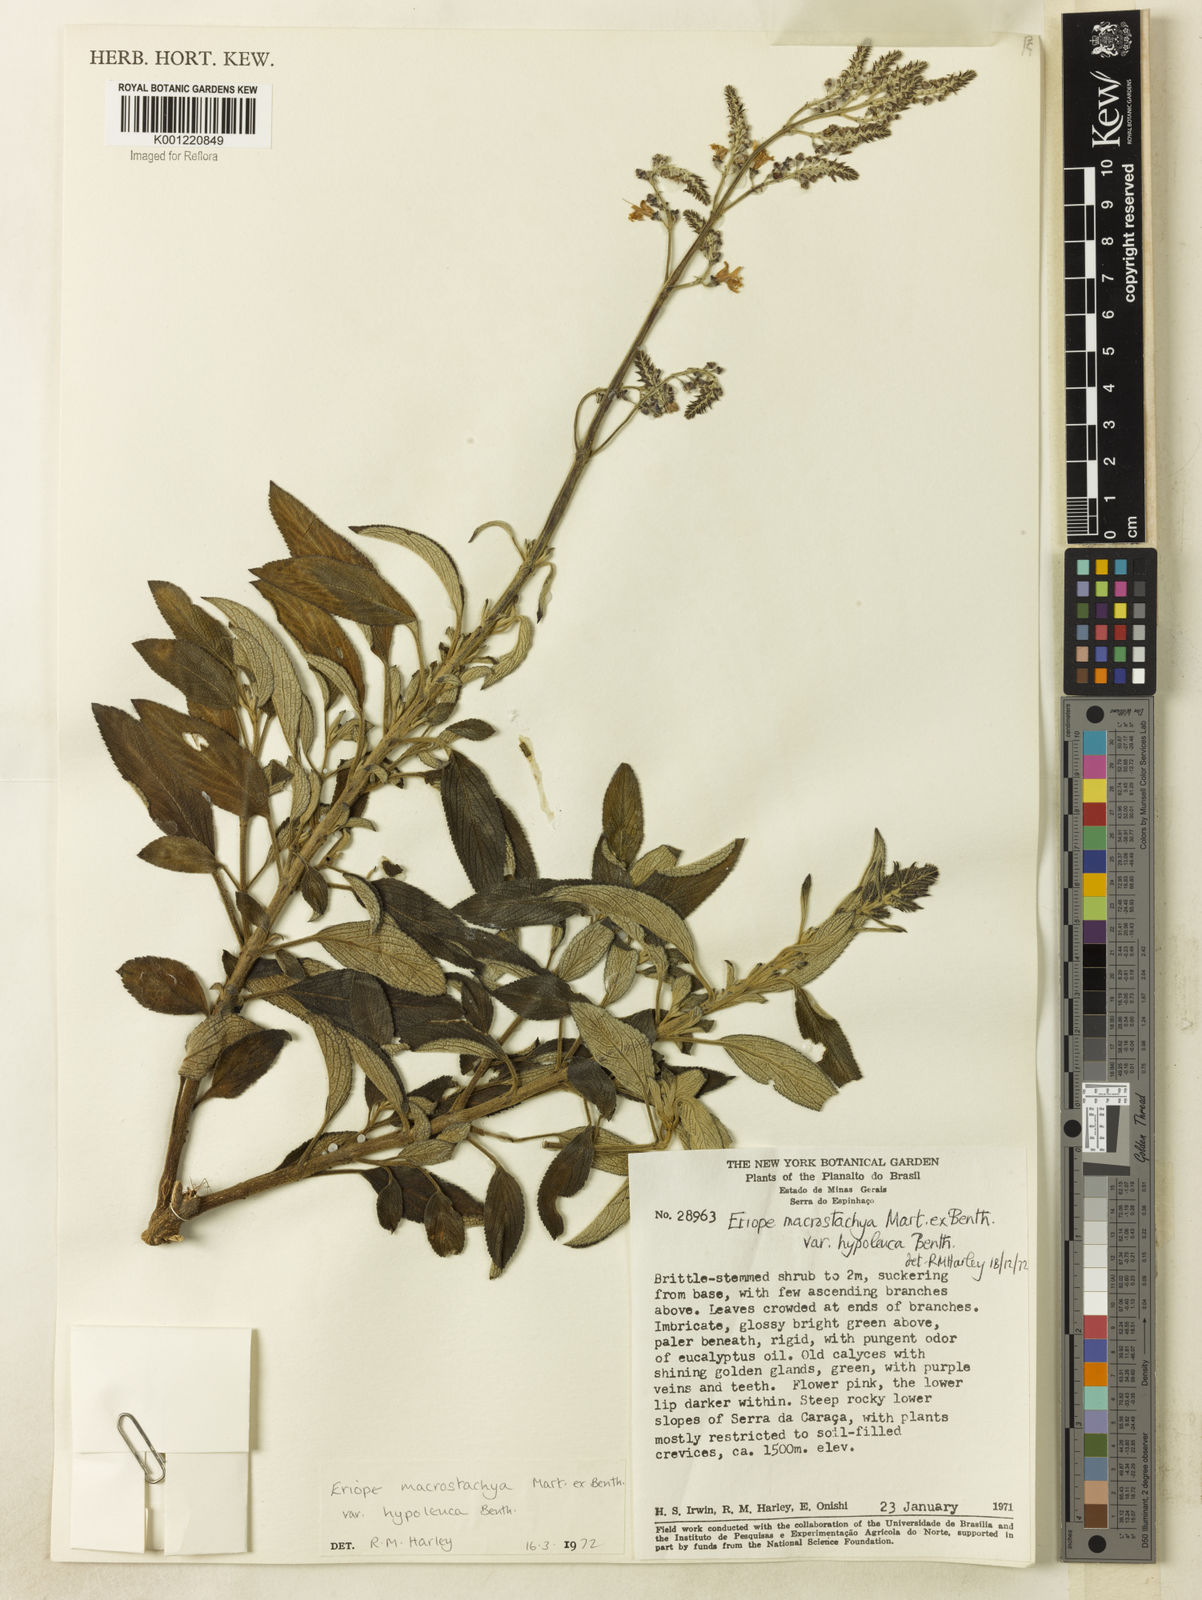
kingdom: Plantae
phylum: Tracheophyta
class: Magnoliopsida
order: Lamiales
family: Lamiaceae
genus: Eriope
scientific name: Eriope macrostachya
